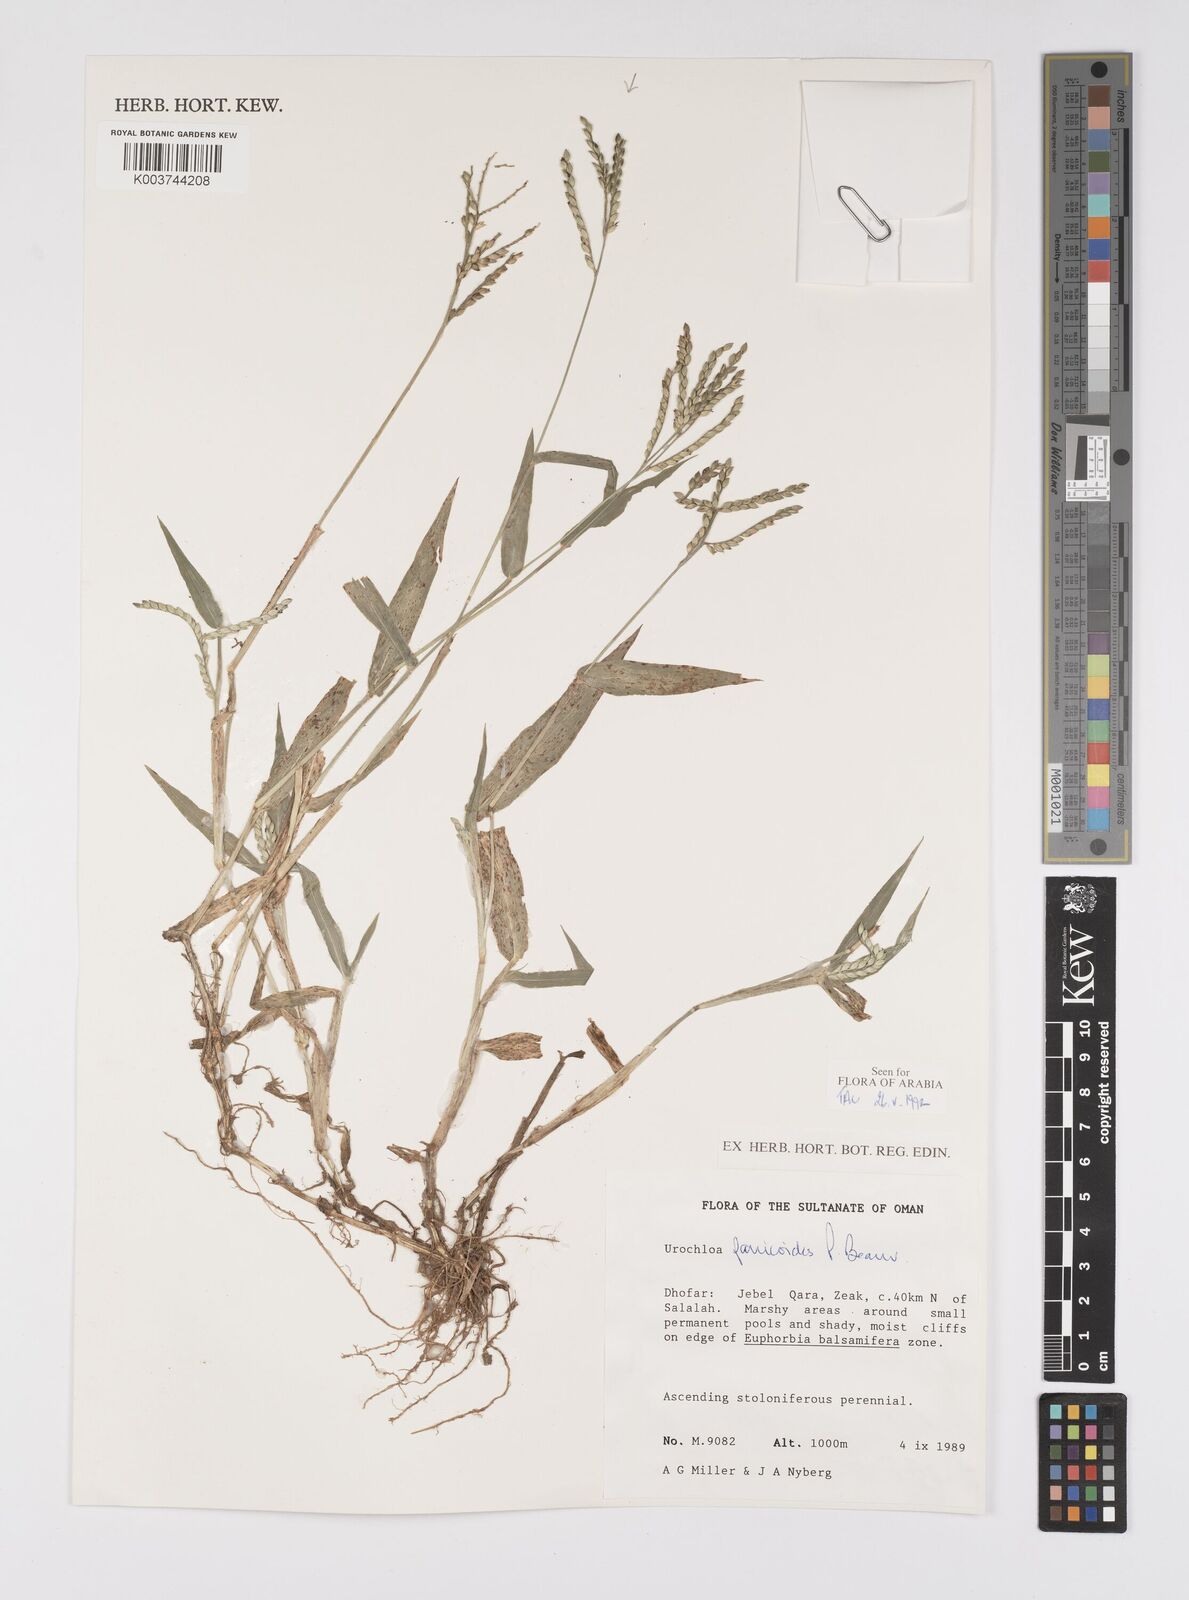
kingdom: Plantae
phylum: Tracheophyta
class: Liliopsida
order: Poales
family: Poaceae
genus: Urochloa
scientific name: Urochloa panicoides
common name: Sharp-flowered signal-grass
